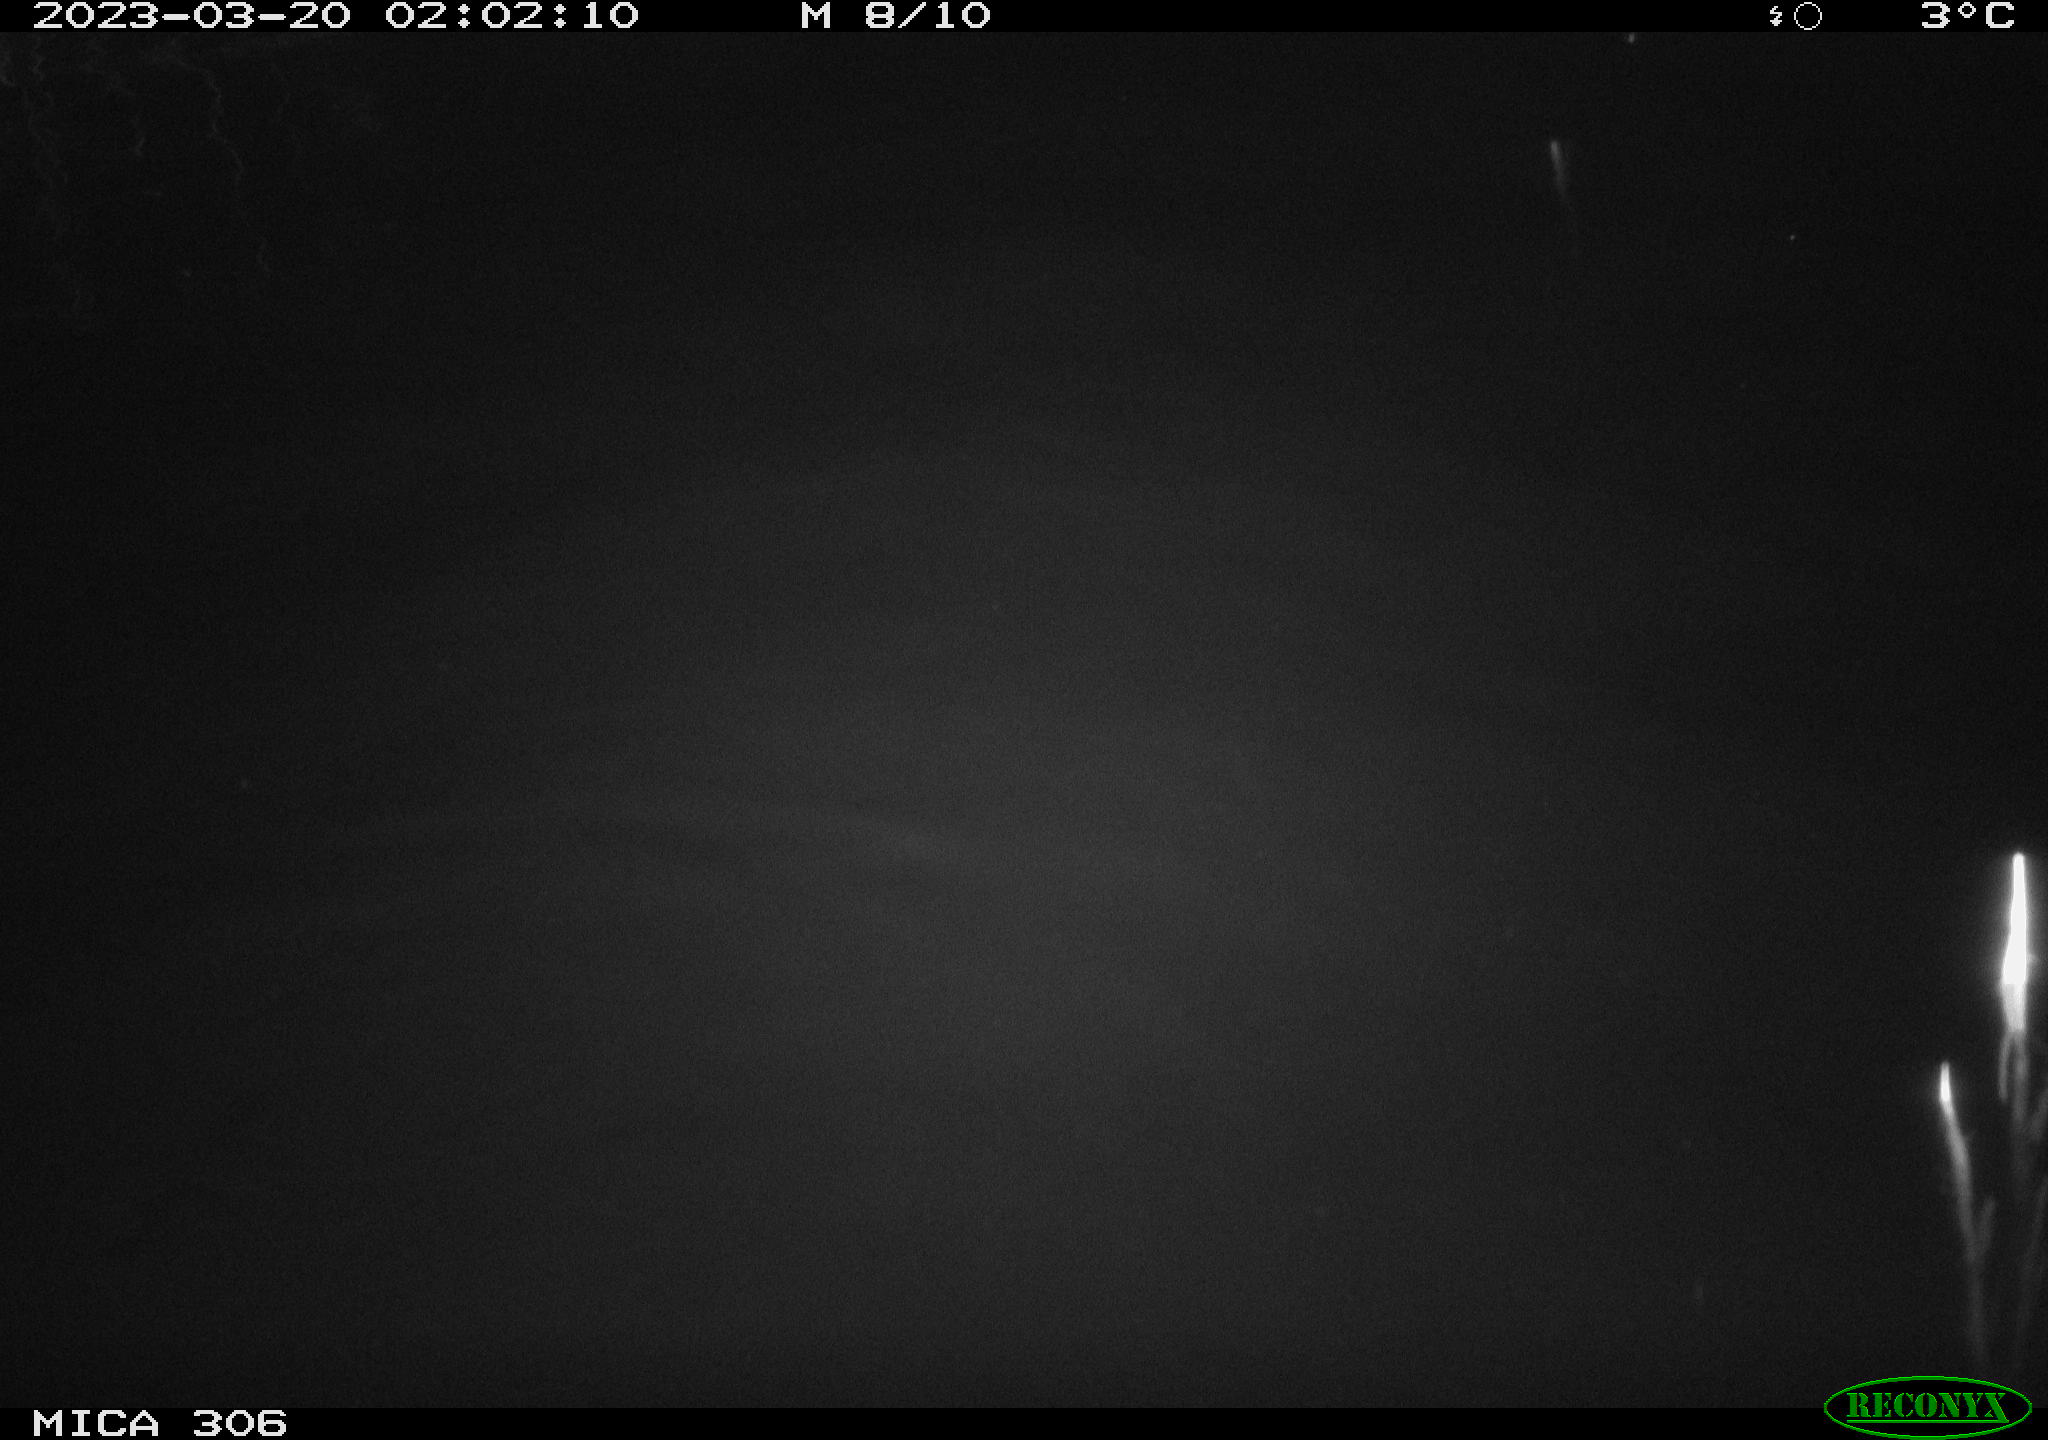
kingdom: Animalia
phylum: Chordata
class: Mammalia
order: Rodentia
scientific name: Rodentia
